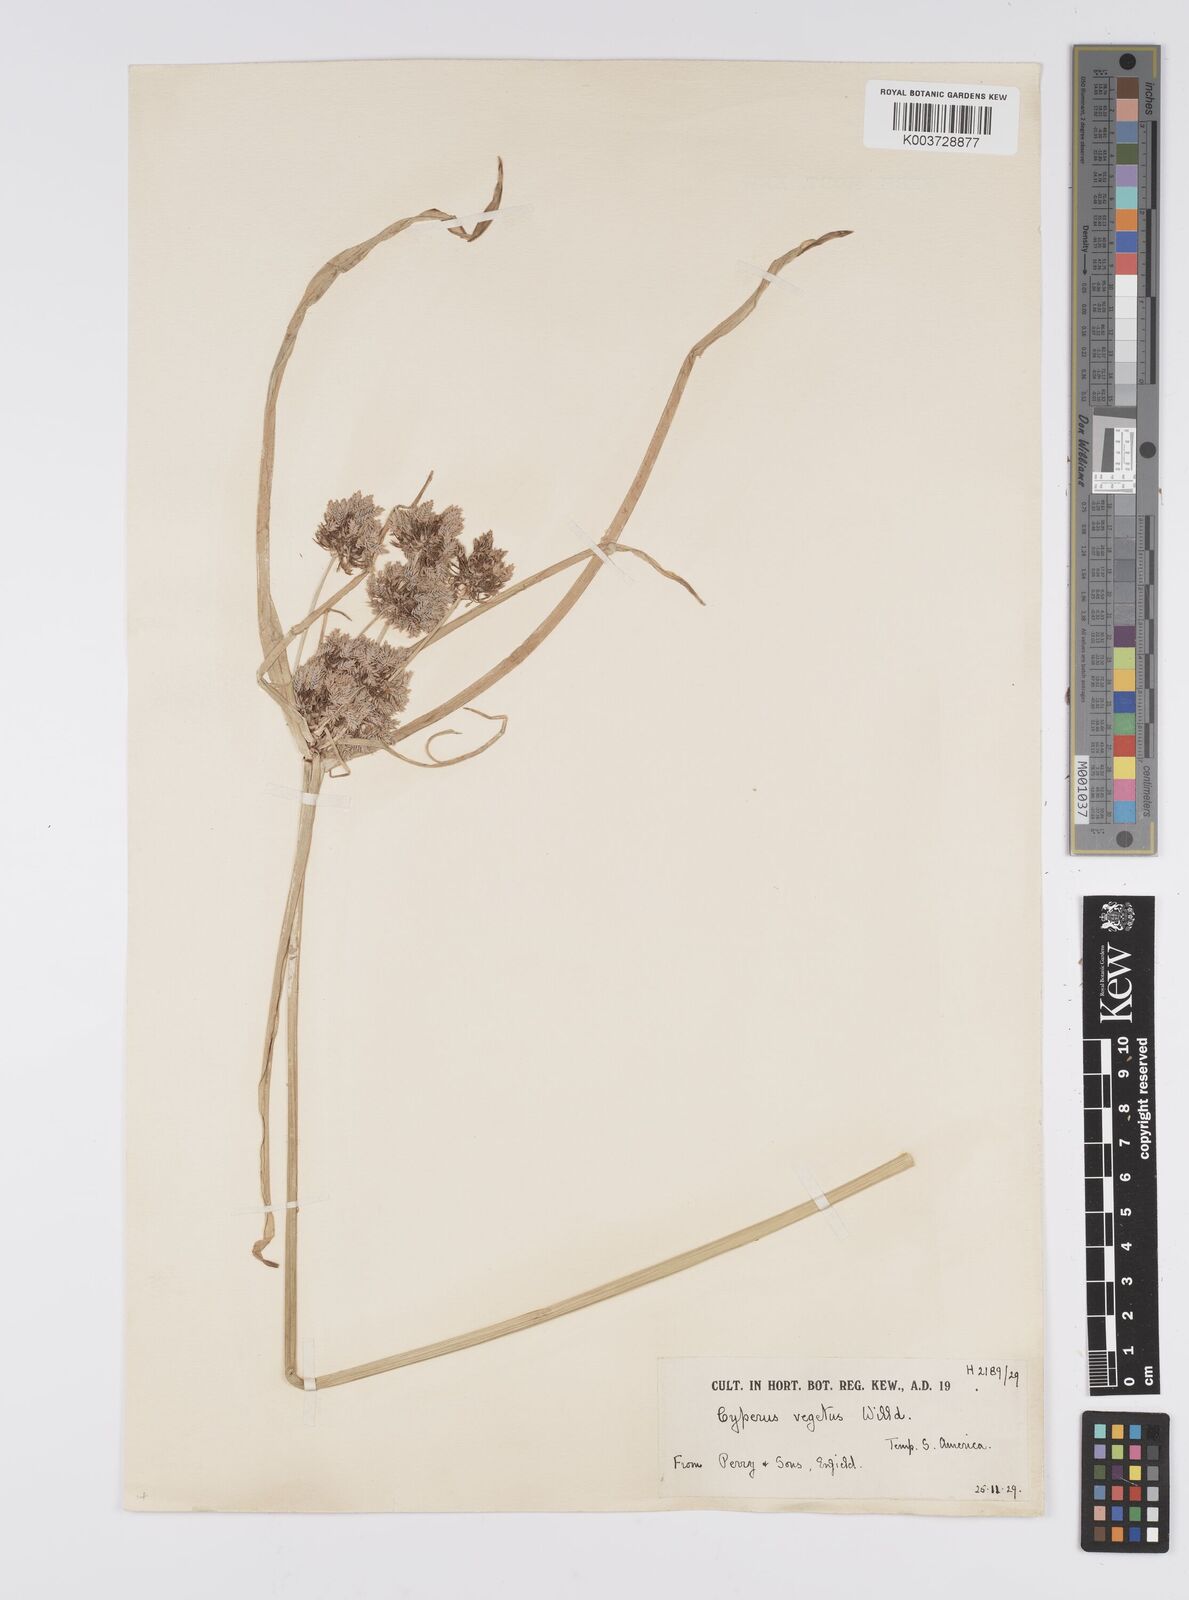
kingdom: Plantae
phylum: Tracheophyta
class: Liliopsida
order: Poales
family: Cyperaceae
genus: Cyperus
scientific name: Cyperus eragrostis
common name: Tall flatsedge
